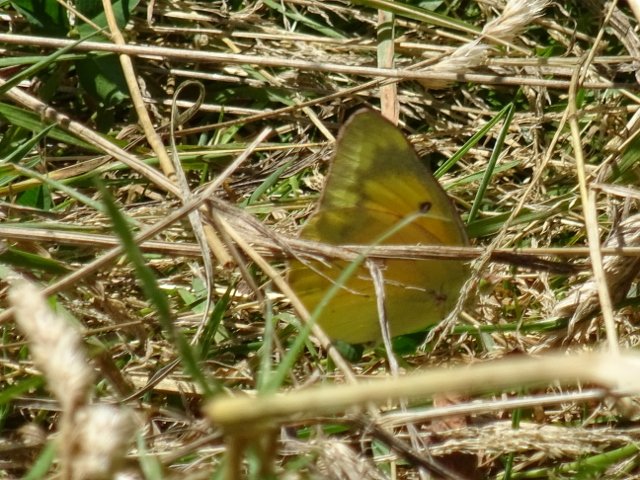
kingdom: Animalia
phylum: Arthropoda
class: Insecta
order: Lepidoptera
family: Pieridae
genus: Colias
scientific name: Colias eurytheme
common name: Orange Sulphur
